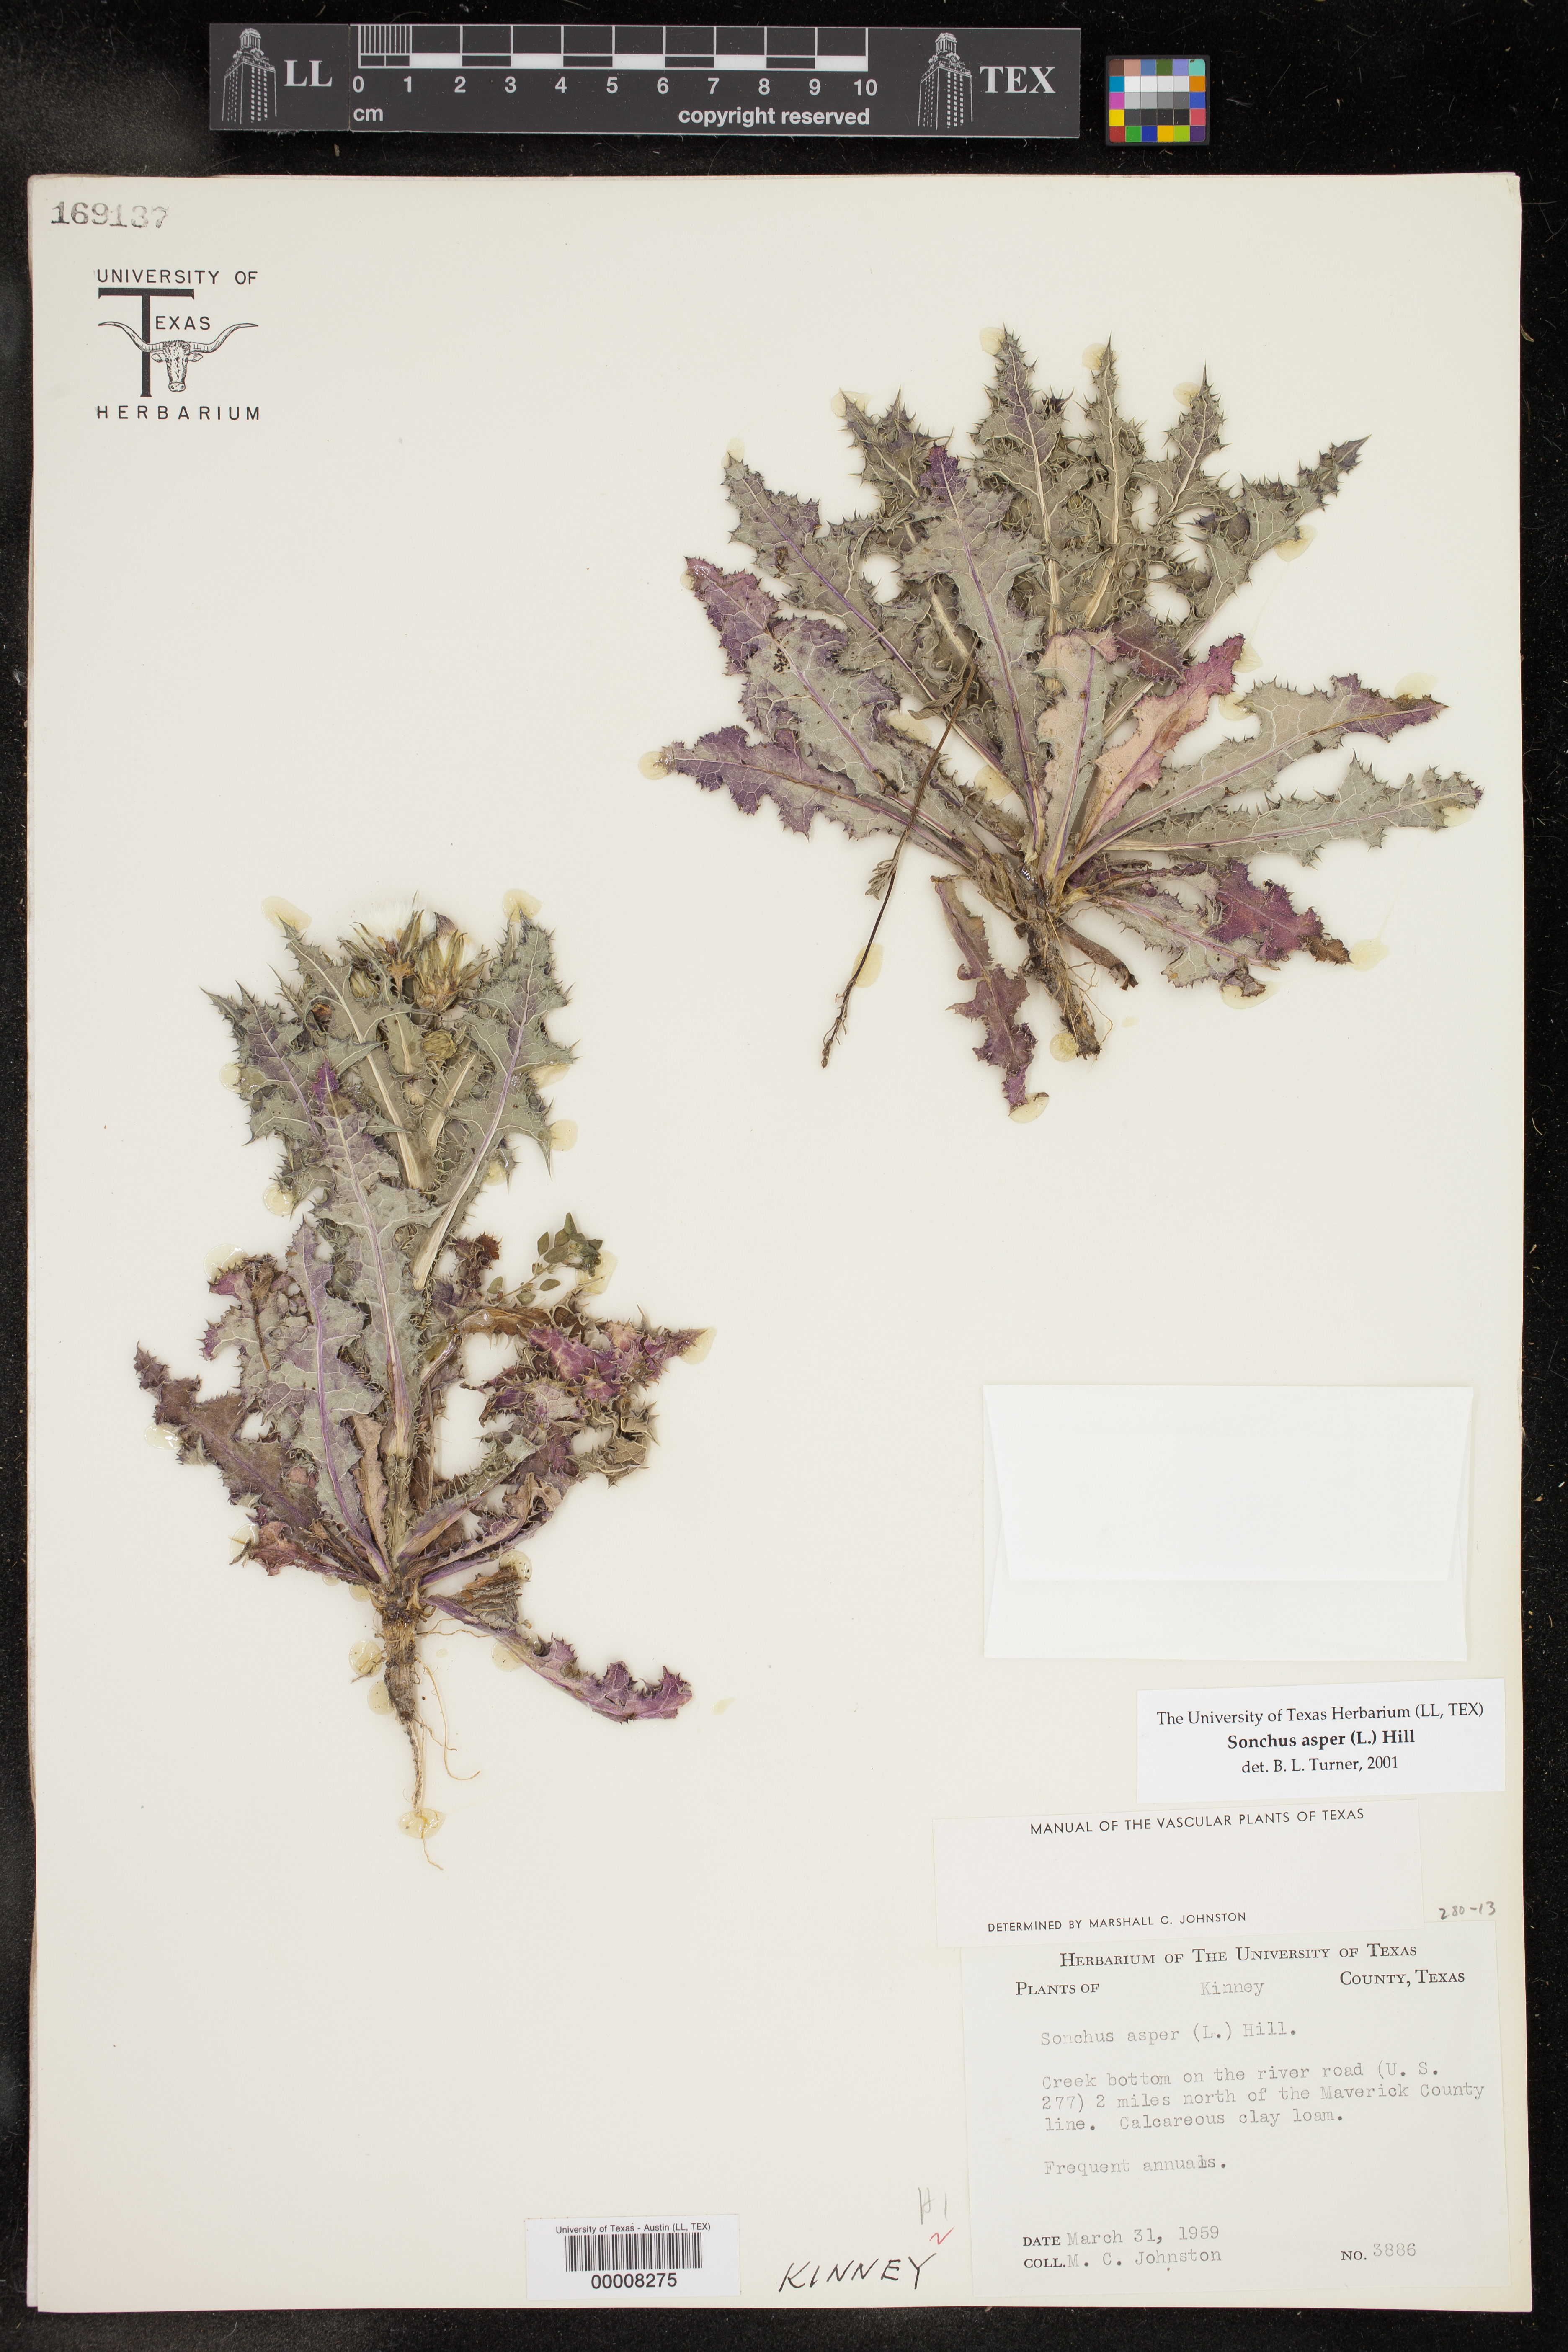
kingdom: Plantae
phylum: Tracheophyta
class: Magnoliopsida
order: Asterales
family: Asteraceae
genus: Sonchus
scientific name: Sonchus asper
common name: Prickly sow-thistle
